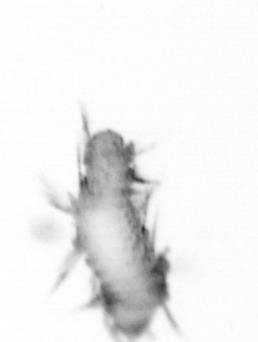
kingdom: Animalia
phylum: Annelida
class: Polychaeta
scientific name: Polychaeta
